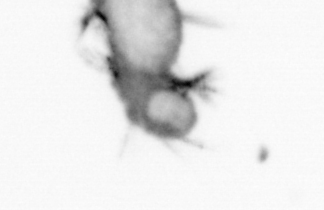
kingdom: Animalia
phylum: Annelida
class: Polychaeta
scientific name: Polychaeta
